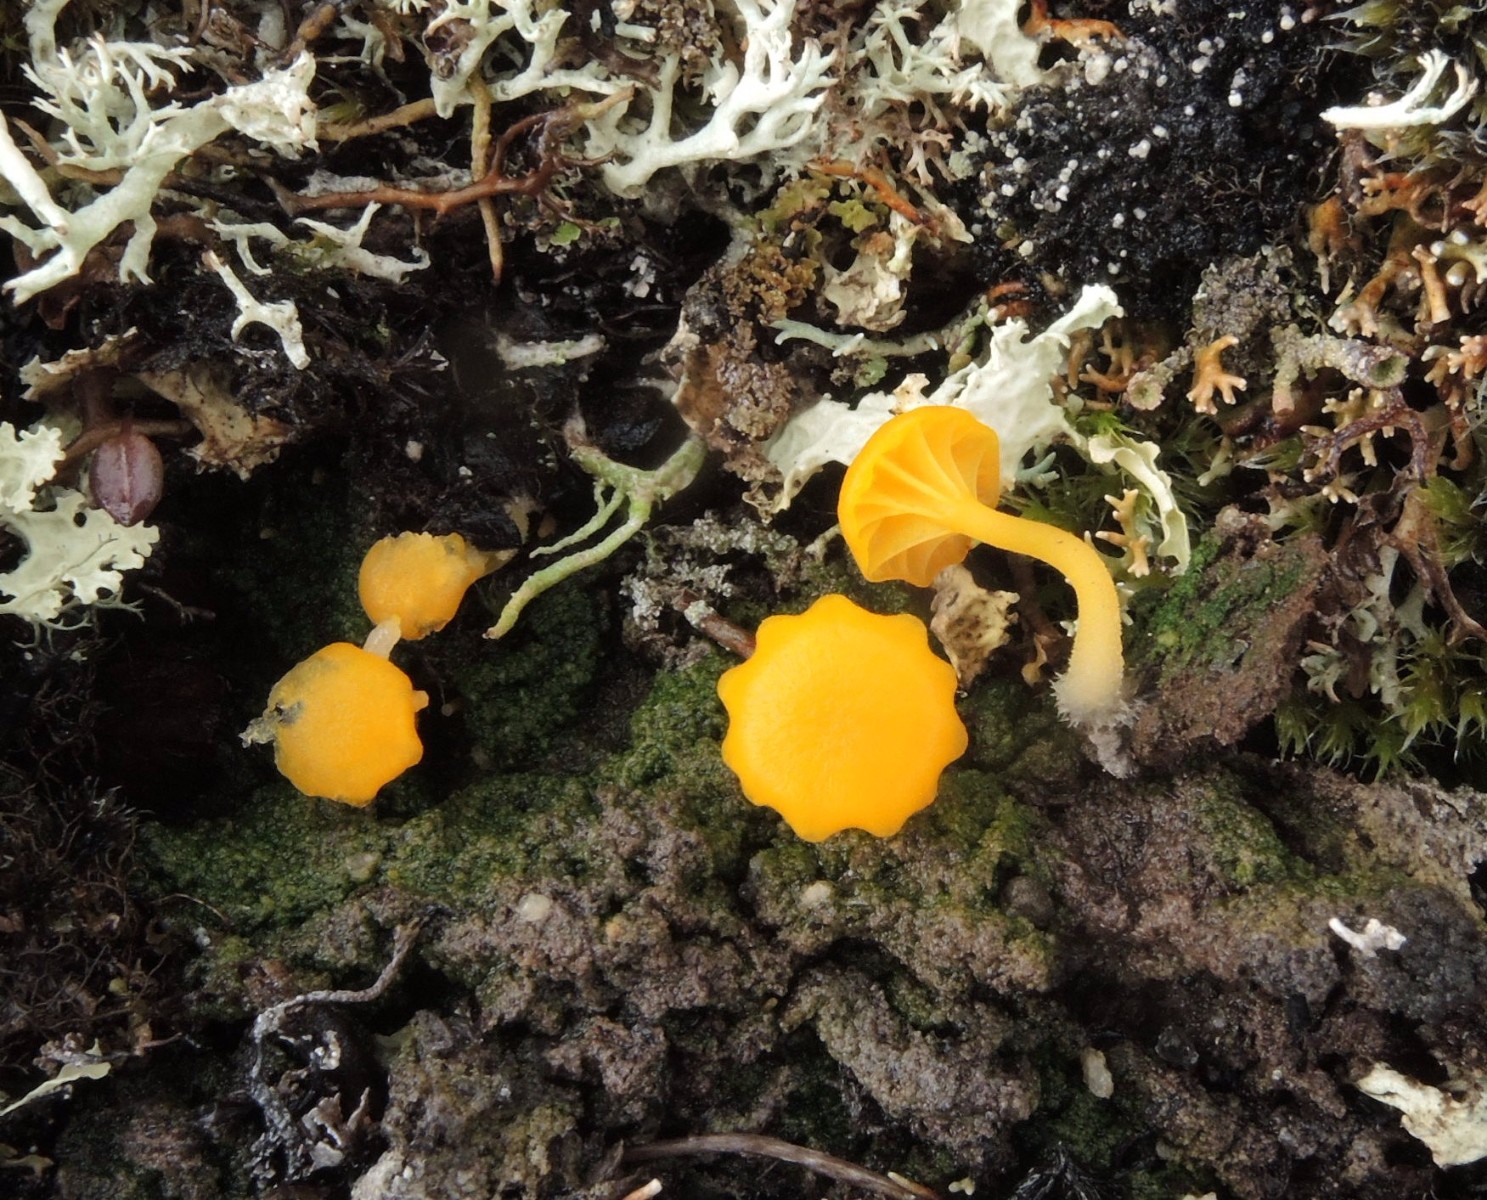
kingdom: Fungi
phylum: Basidiomycota
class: Agaricomycetes
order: Agaricales
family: Hygrophoraceae
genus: Lichenomphalia
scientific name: Lichenomphalia alpina
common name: fjeld-lavhat
